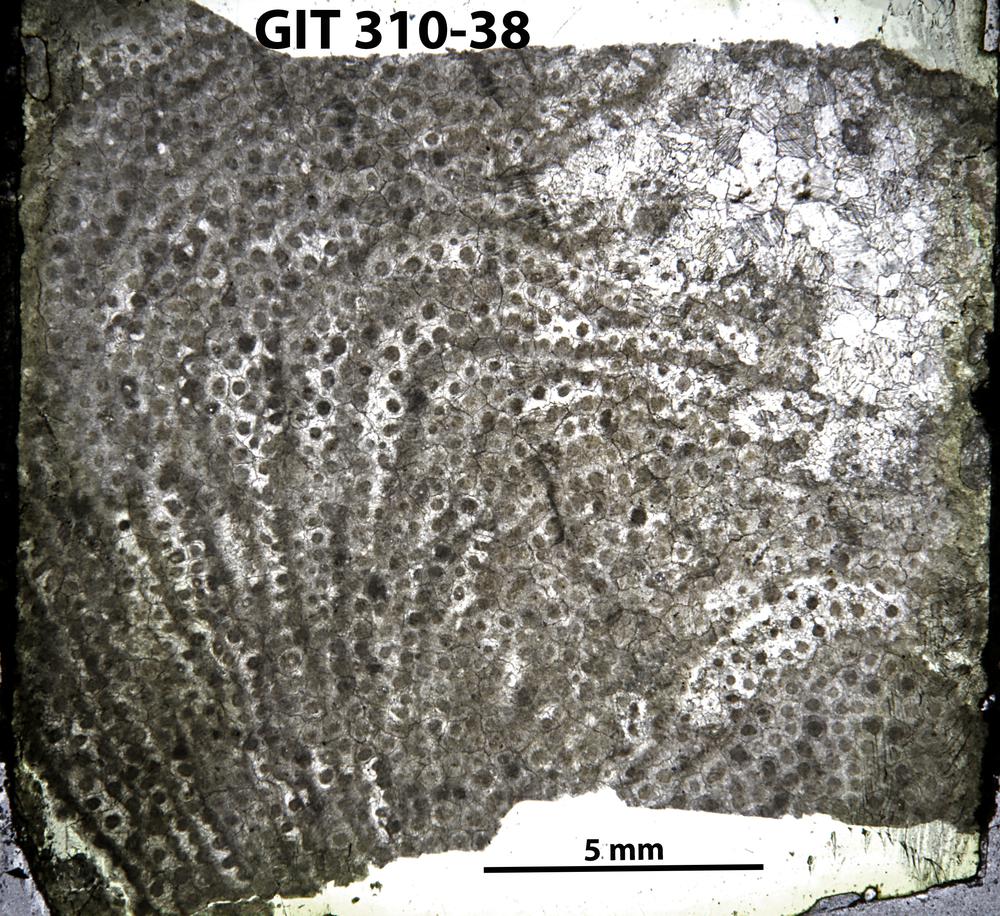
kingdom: Animalia
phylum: Porifera
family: Labechiidae
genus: Labechia
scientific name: Labechia
